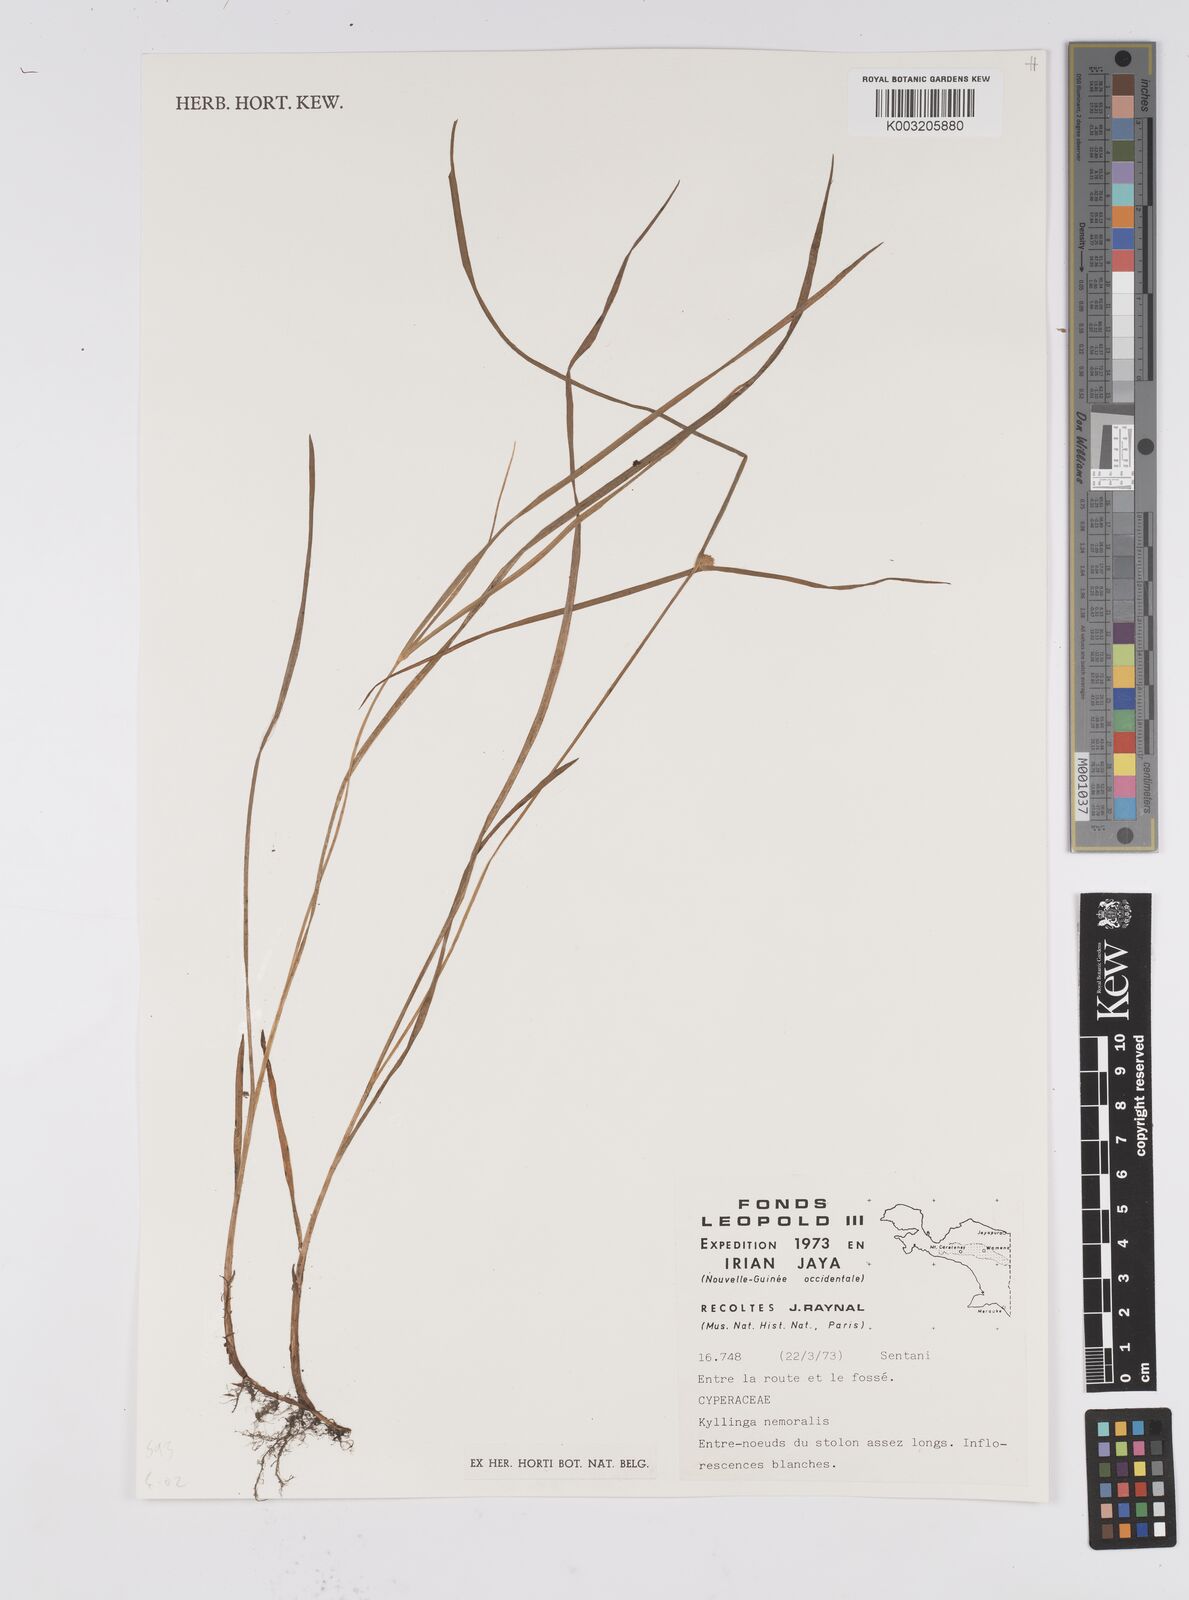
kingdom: Plantae
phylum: Tracheophyta
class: Liliopsida
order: Poales
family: Cyperaceae
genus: Cyperus
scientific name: Cyperus nemoralis
